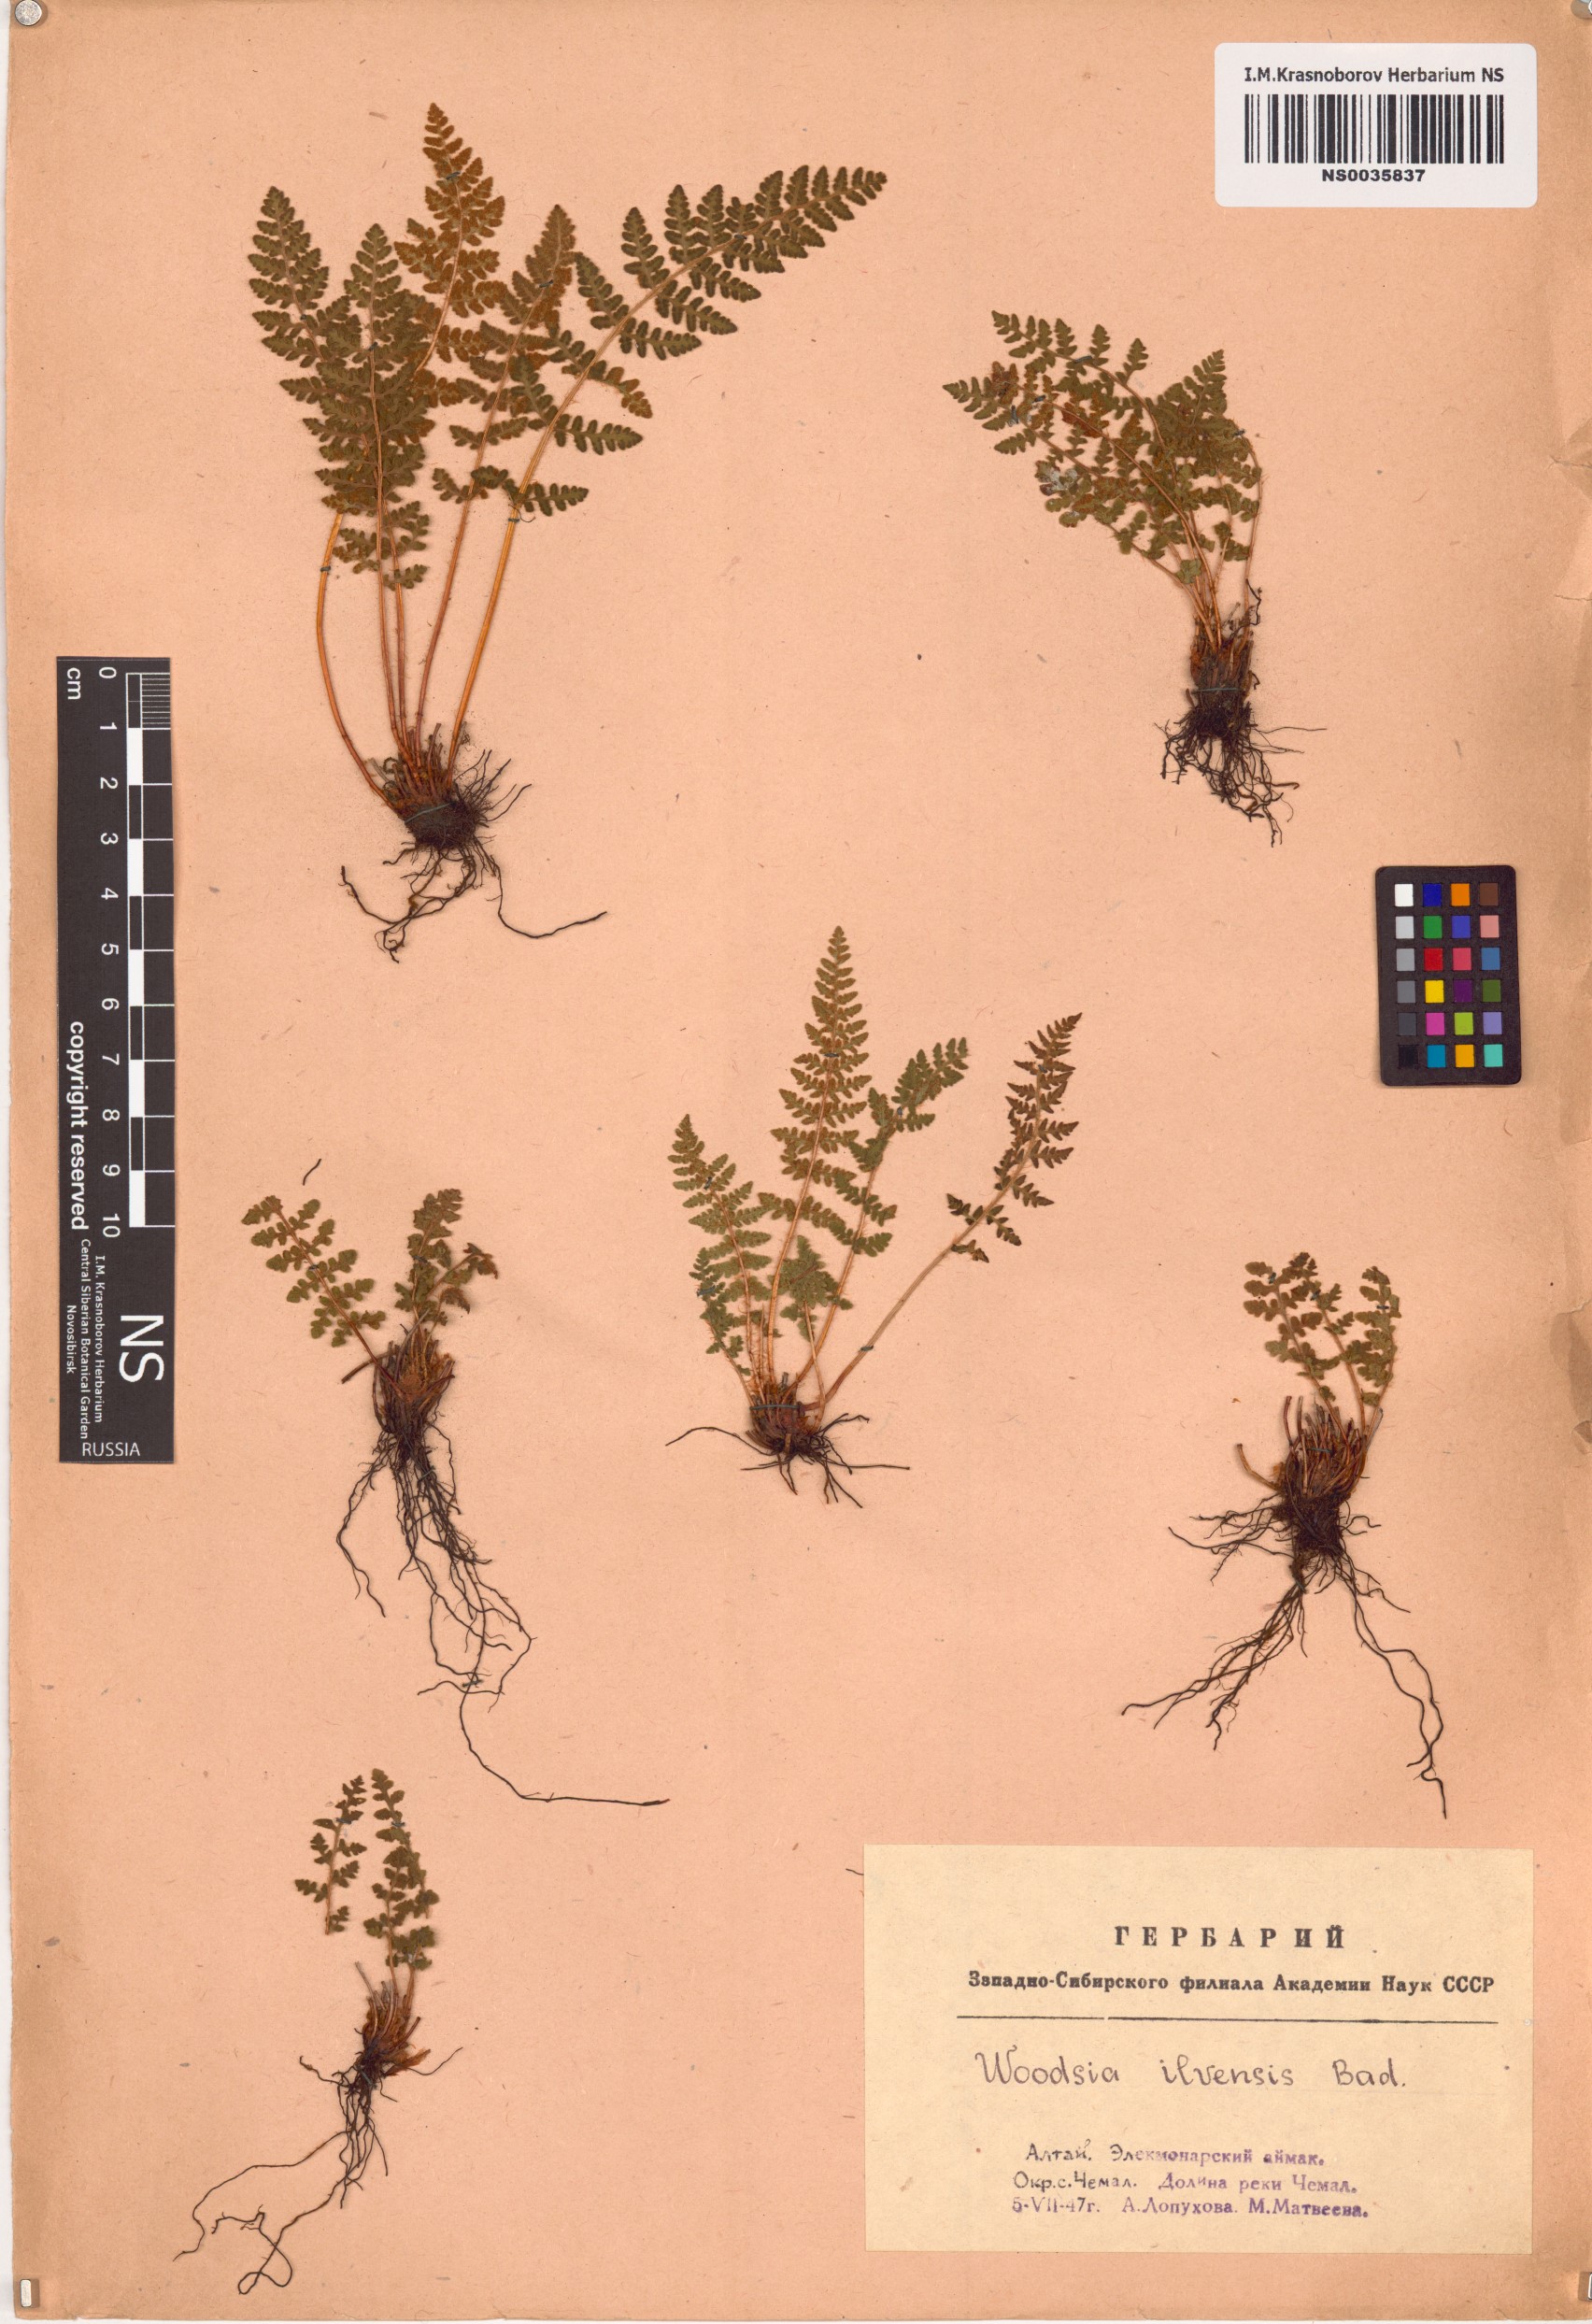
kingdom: Plantae
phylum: Tracheophyta
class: Polypodiopsida
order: Polypodiales
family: Woodsiaceae
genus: Woodsia
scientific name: Woodsia ilvensis
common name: Fragrant woodsia
